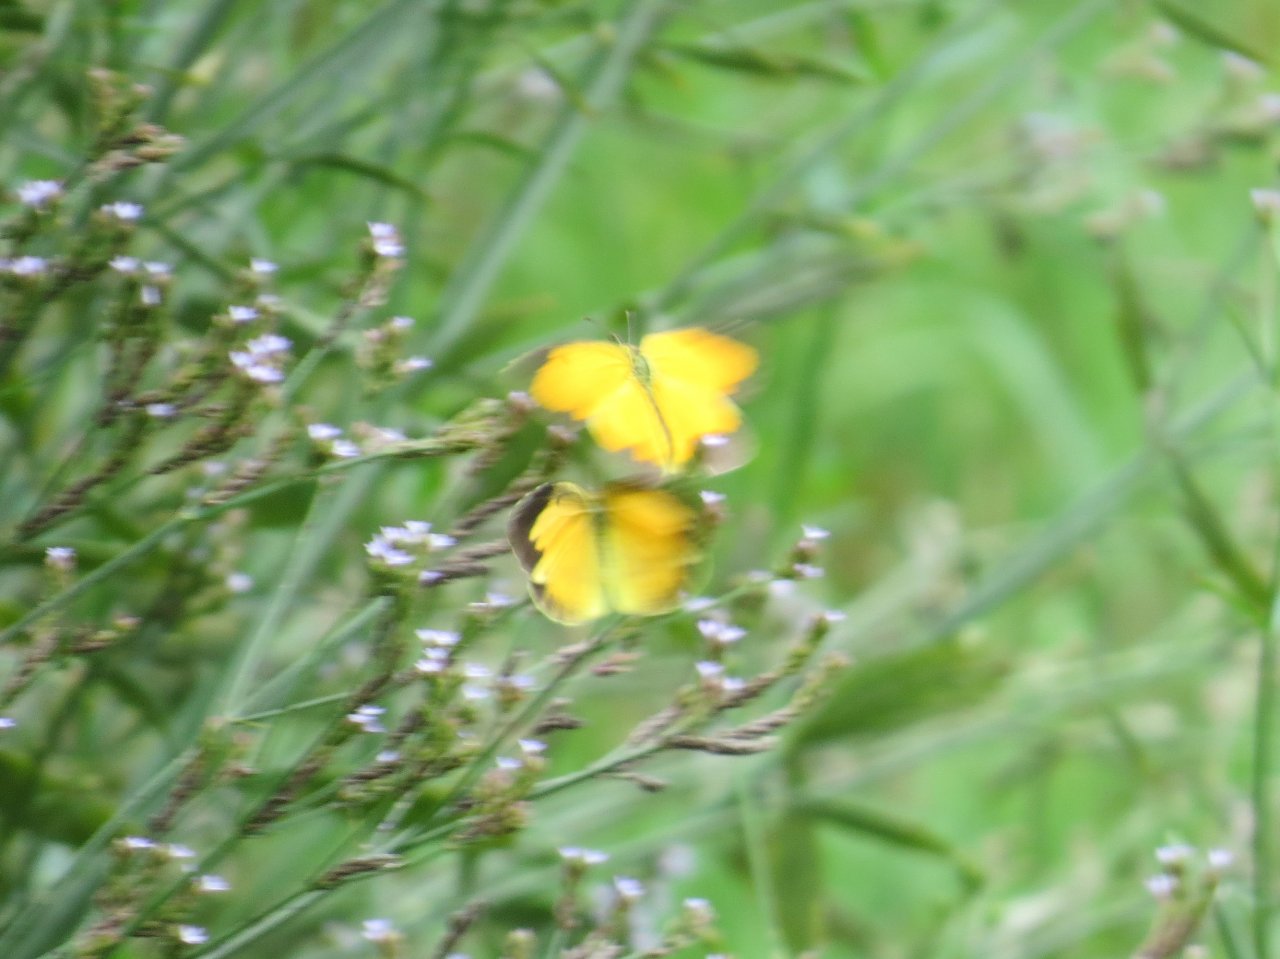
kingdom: Animalia
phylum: Arthropoda
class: Insecta
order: Lepidoptera
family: Pieridae
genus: Abaeis
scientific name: Abaeis nicippe
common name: Sleepy Orange
